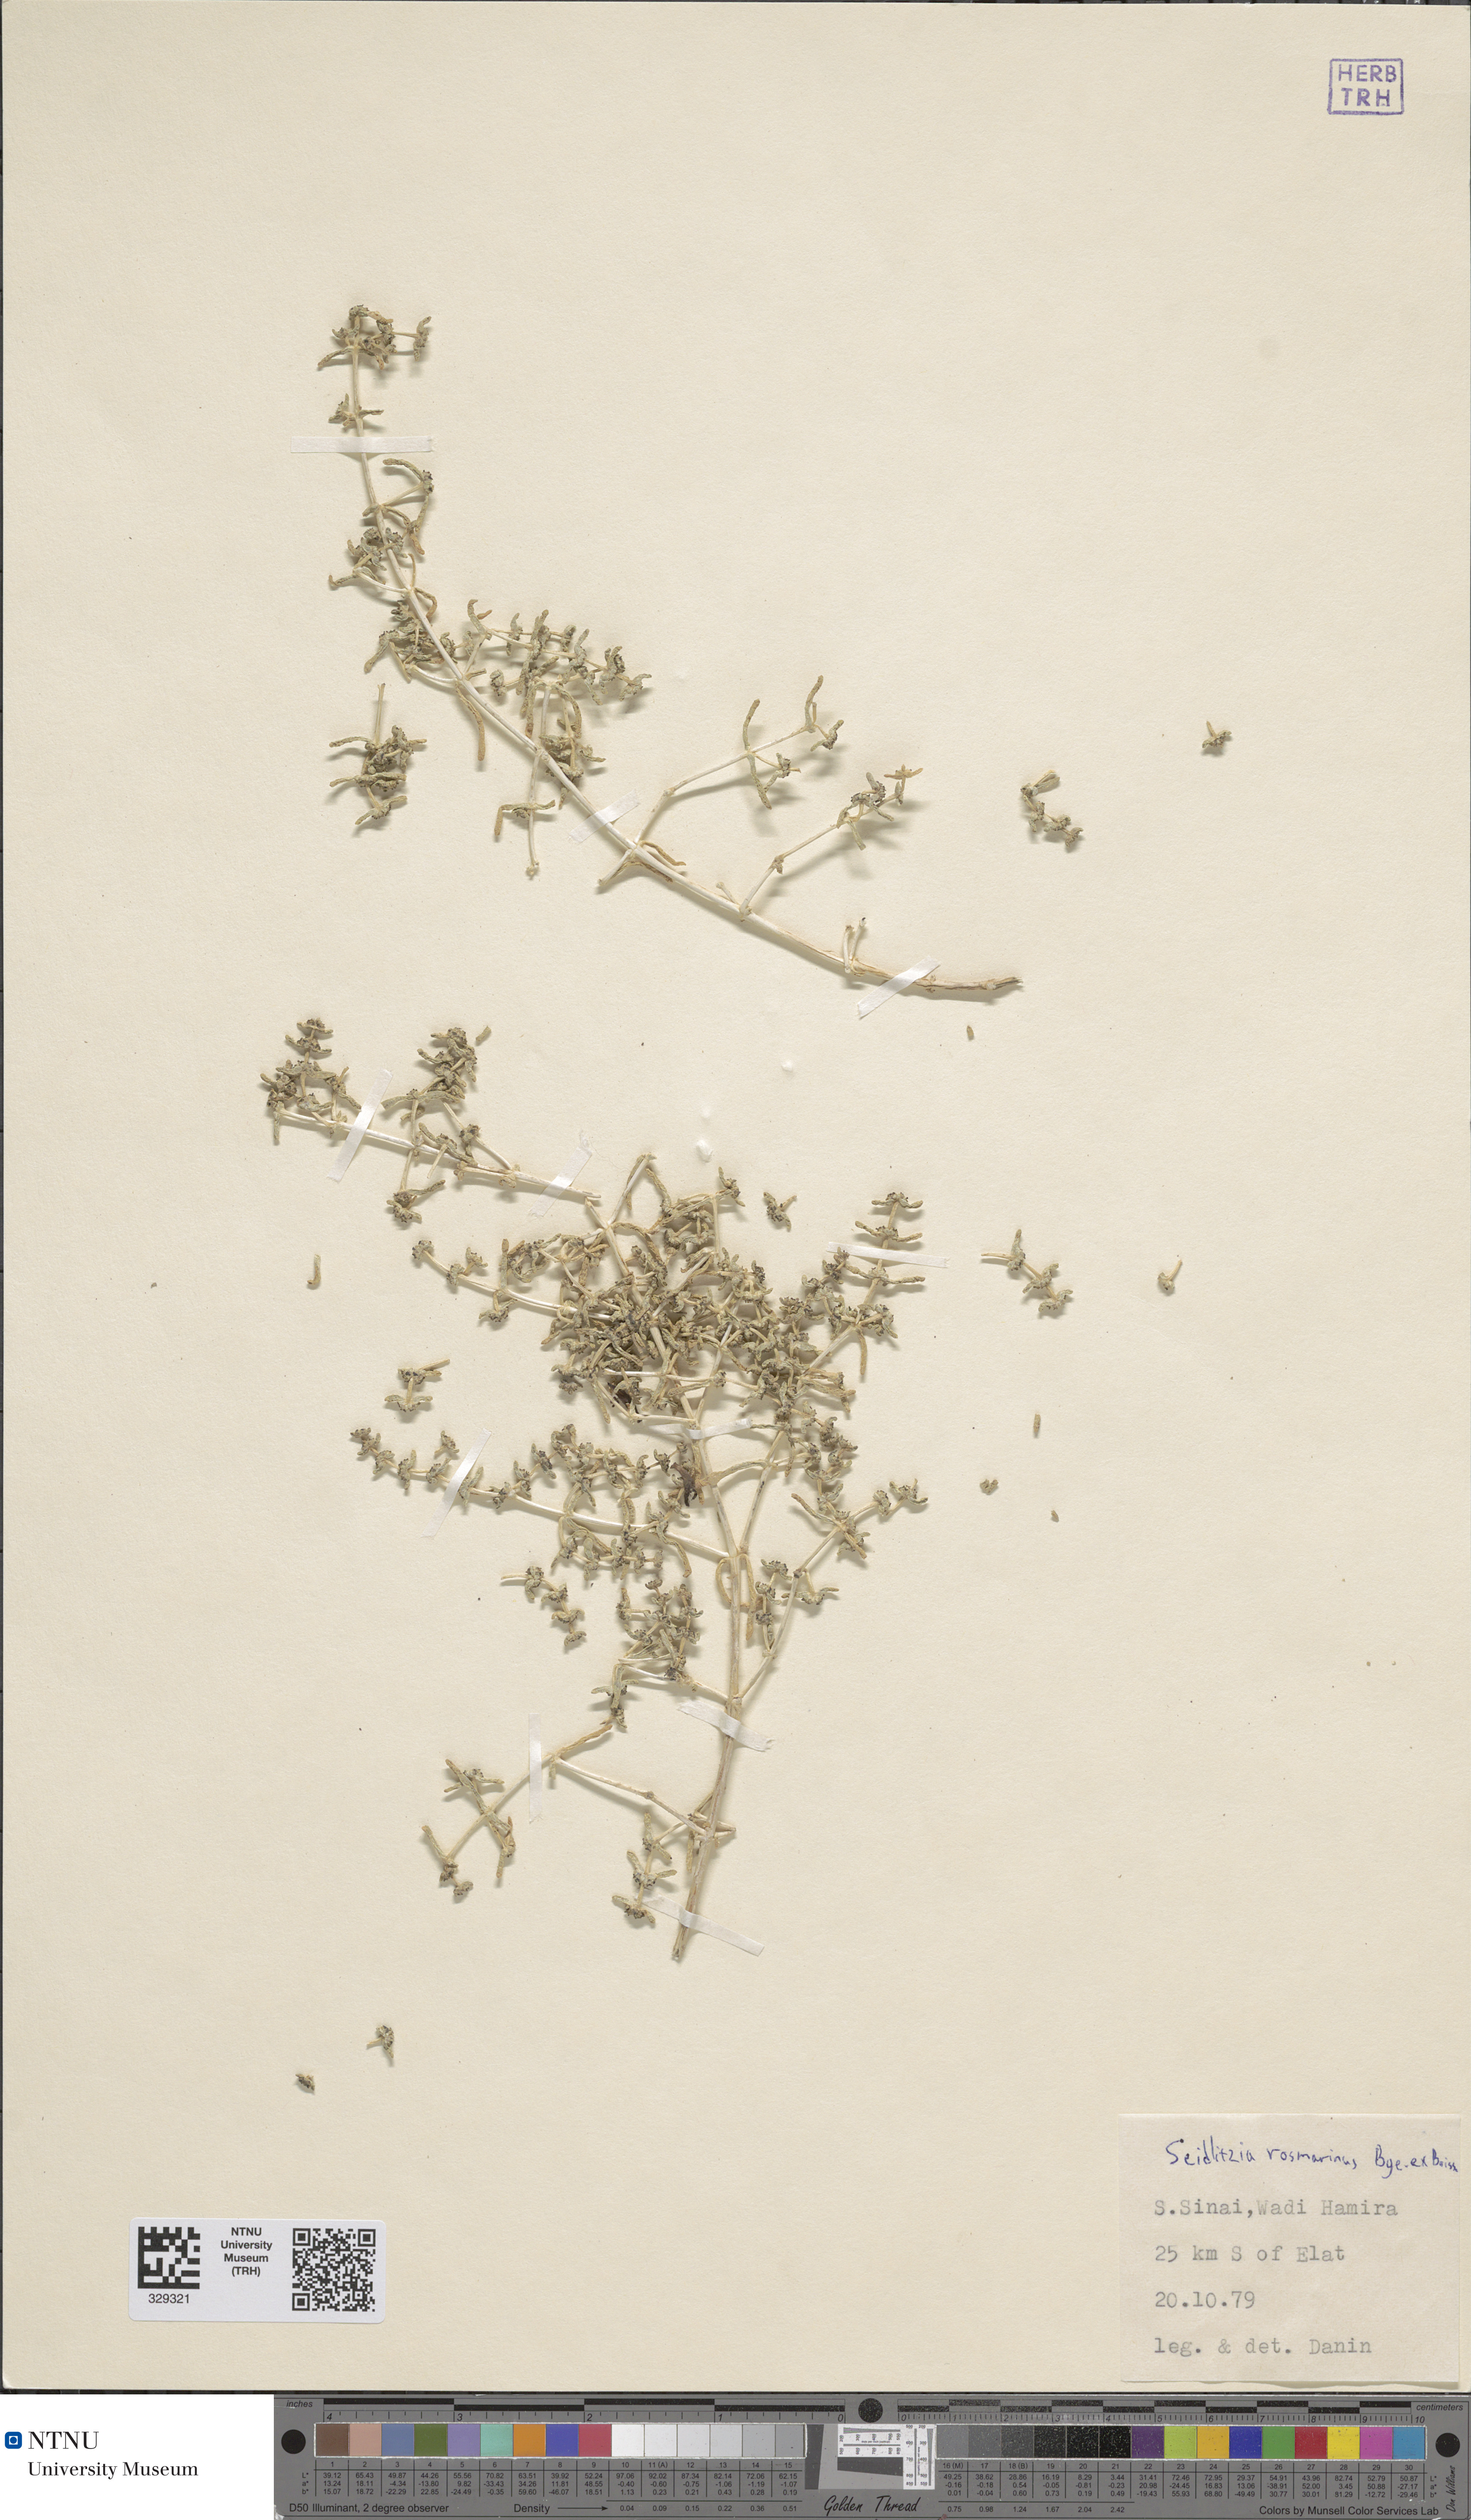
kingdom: Plantae
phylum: Tracheophyta
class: Magnoliopsida
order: Caryophyllales
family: Amaranthaceae
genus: Soda
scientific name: Soda rosmarinus
